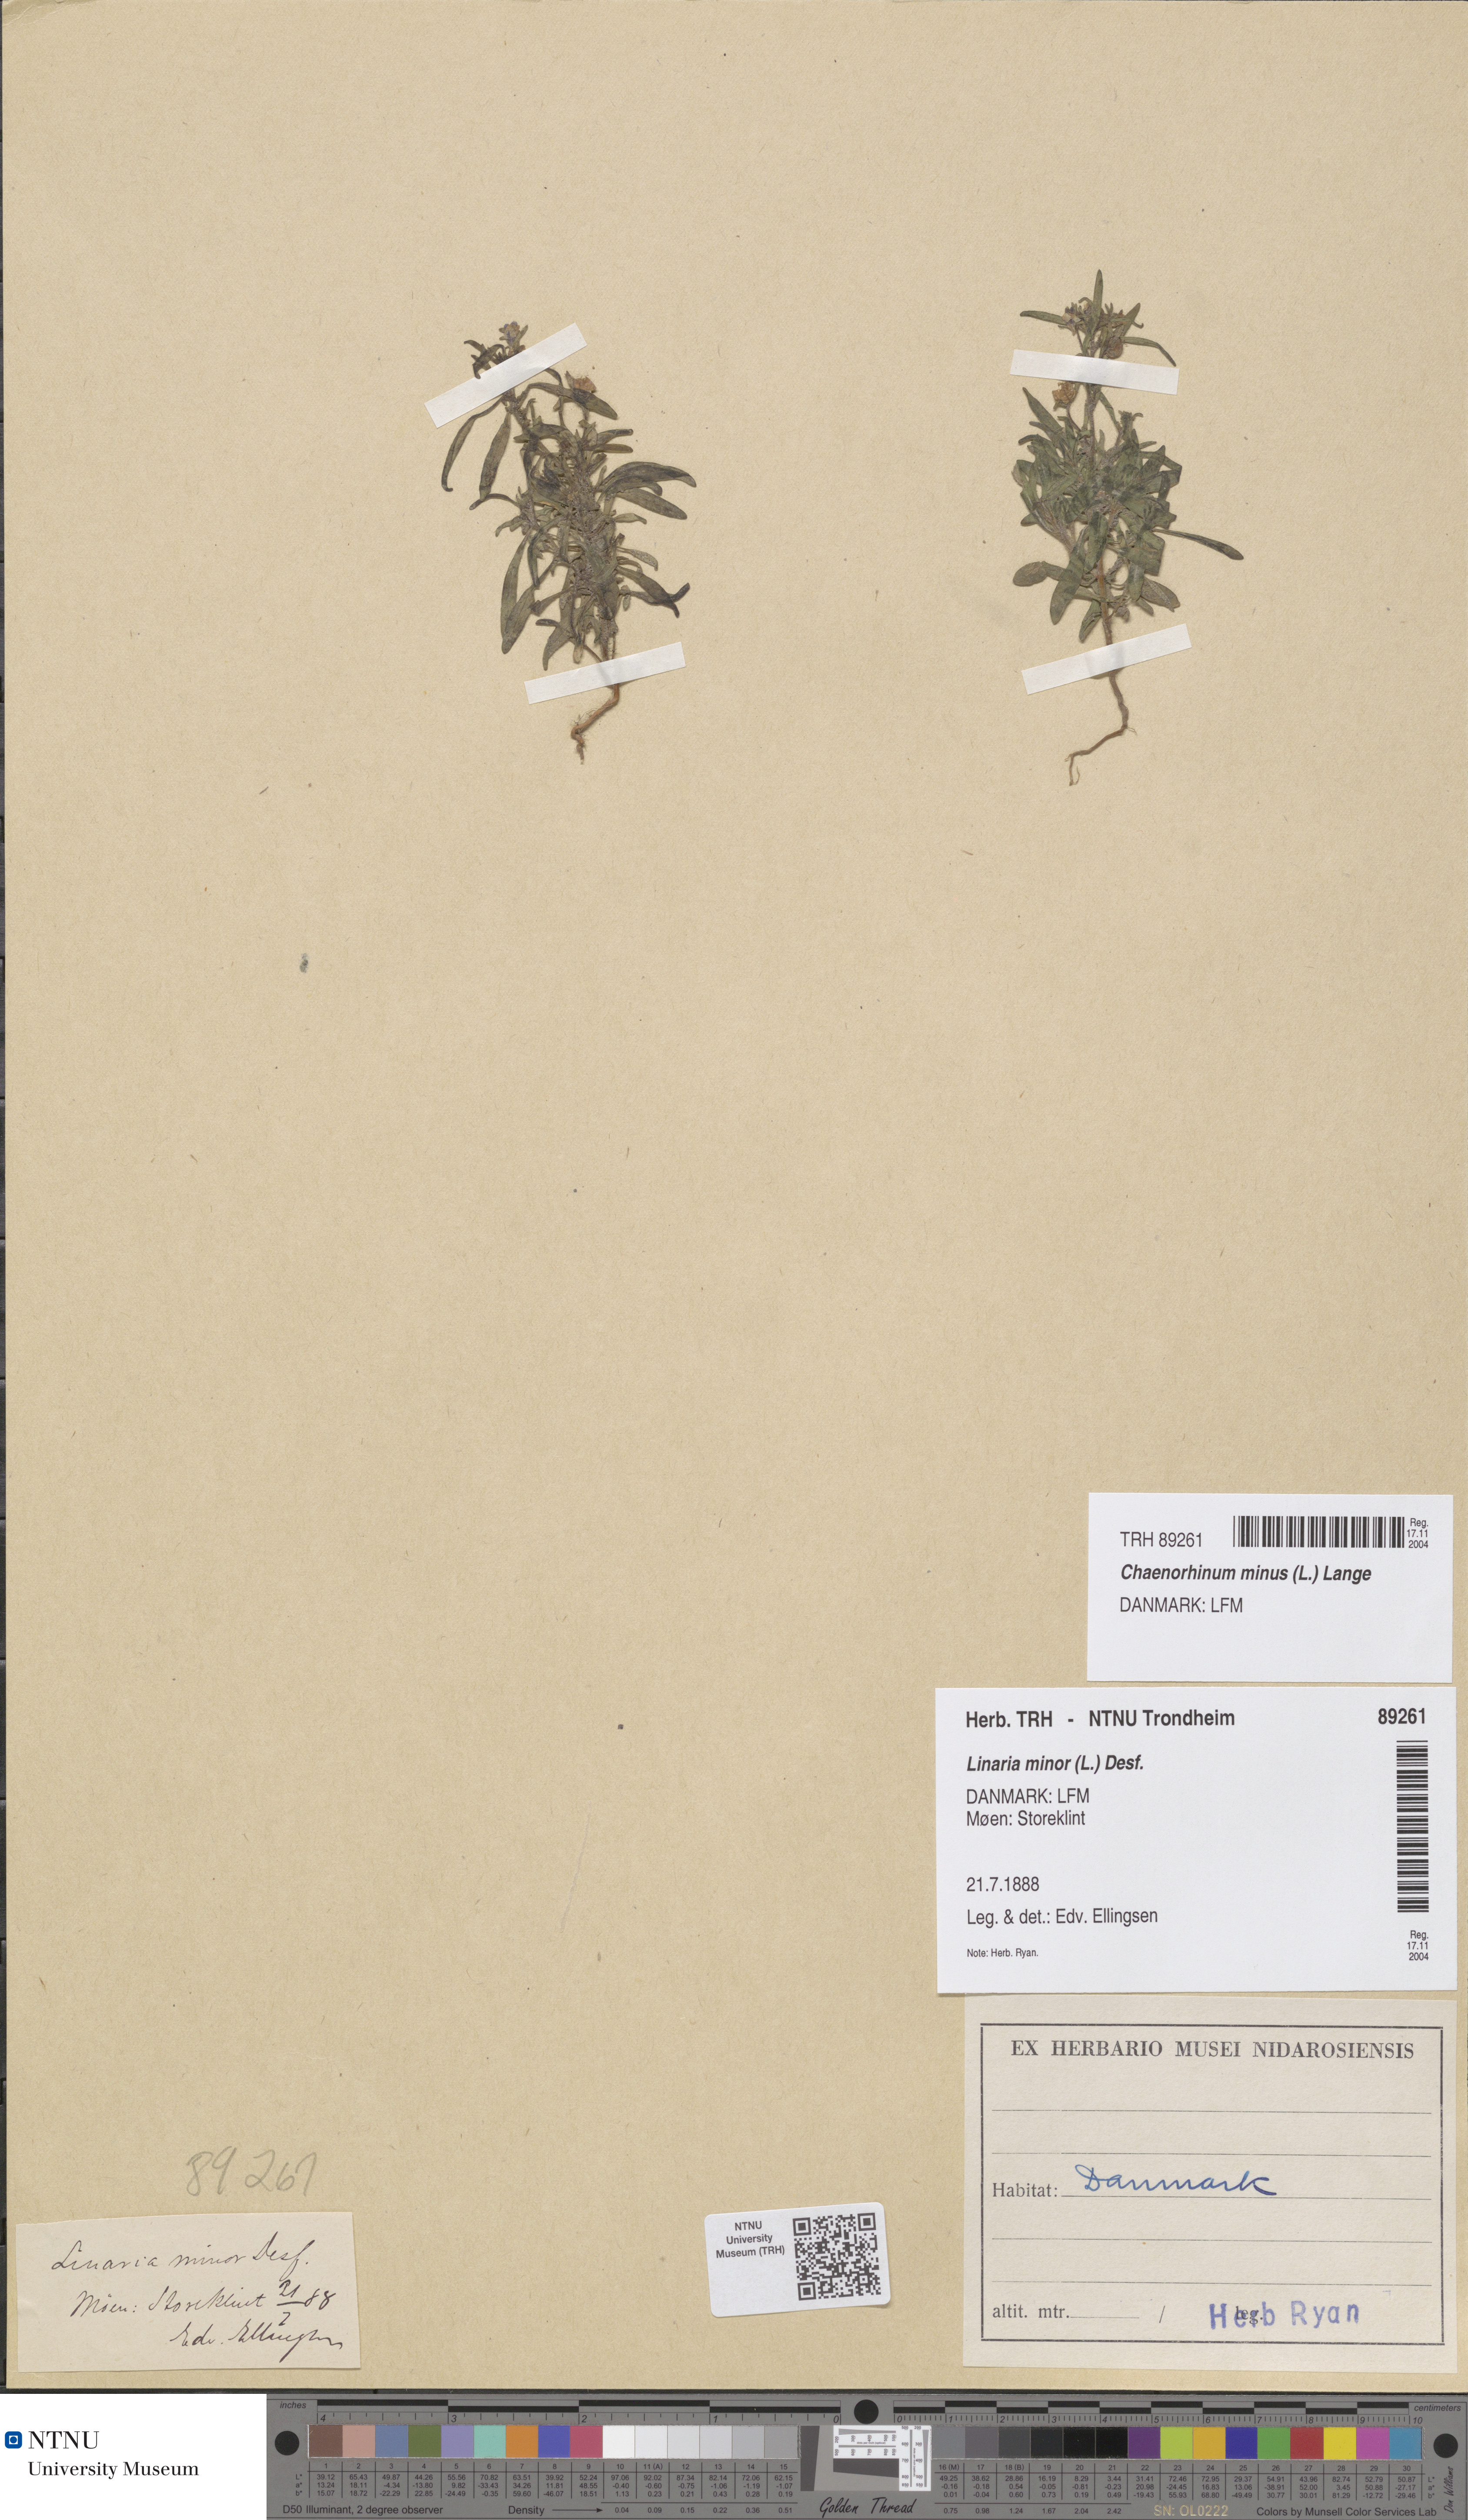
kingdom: Plantae
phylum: Tracheophyta
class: Magnoliopsida
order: Lamiales
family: Plantaginaceae
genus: Chaenorhinum
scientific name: Chaenorhinum minus
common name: Dwarf snapdragon
